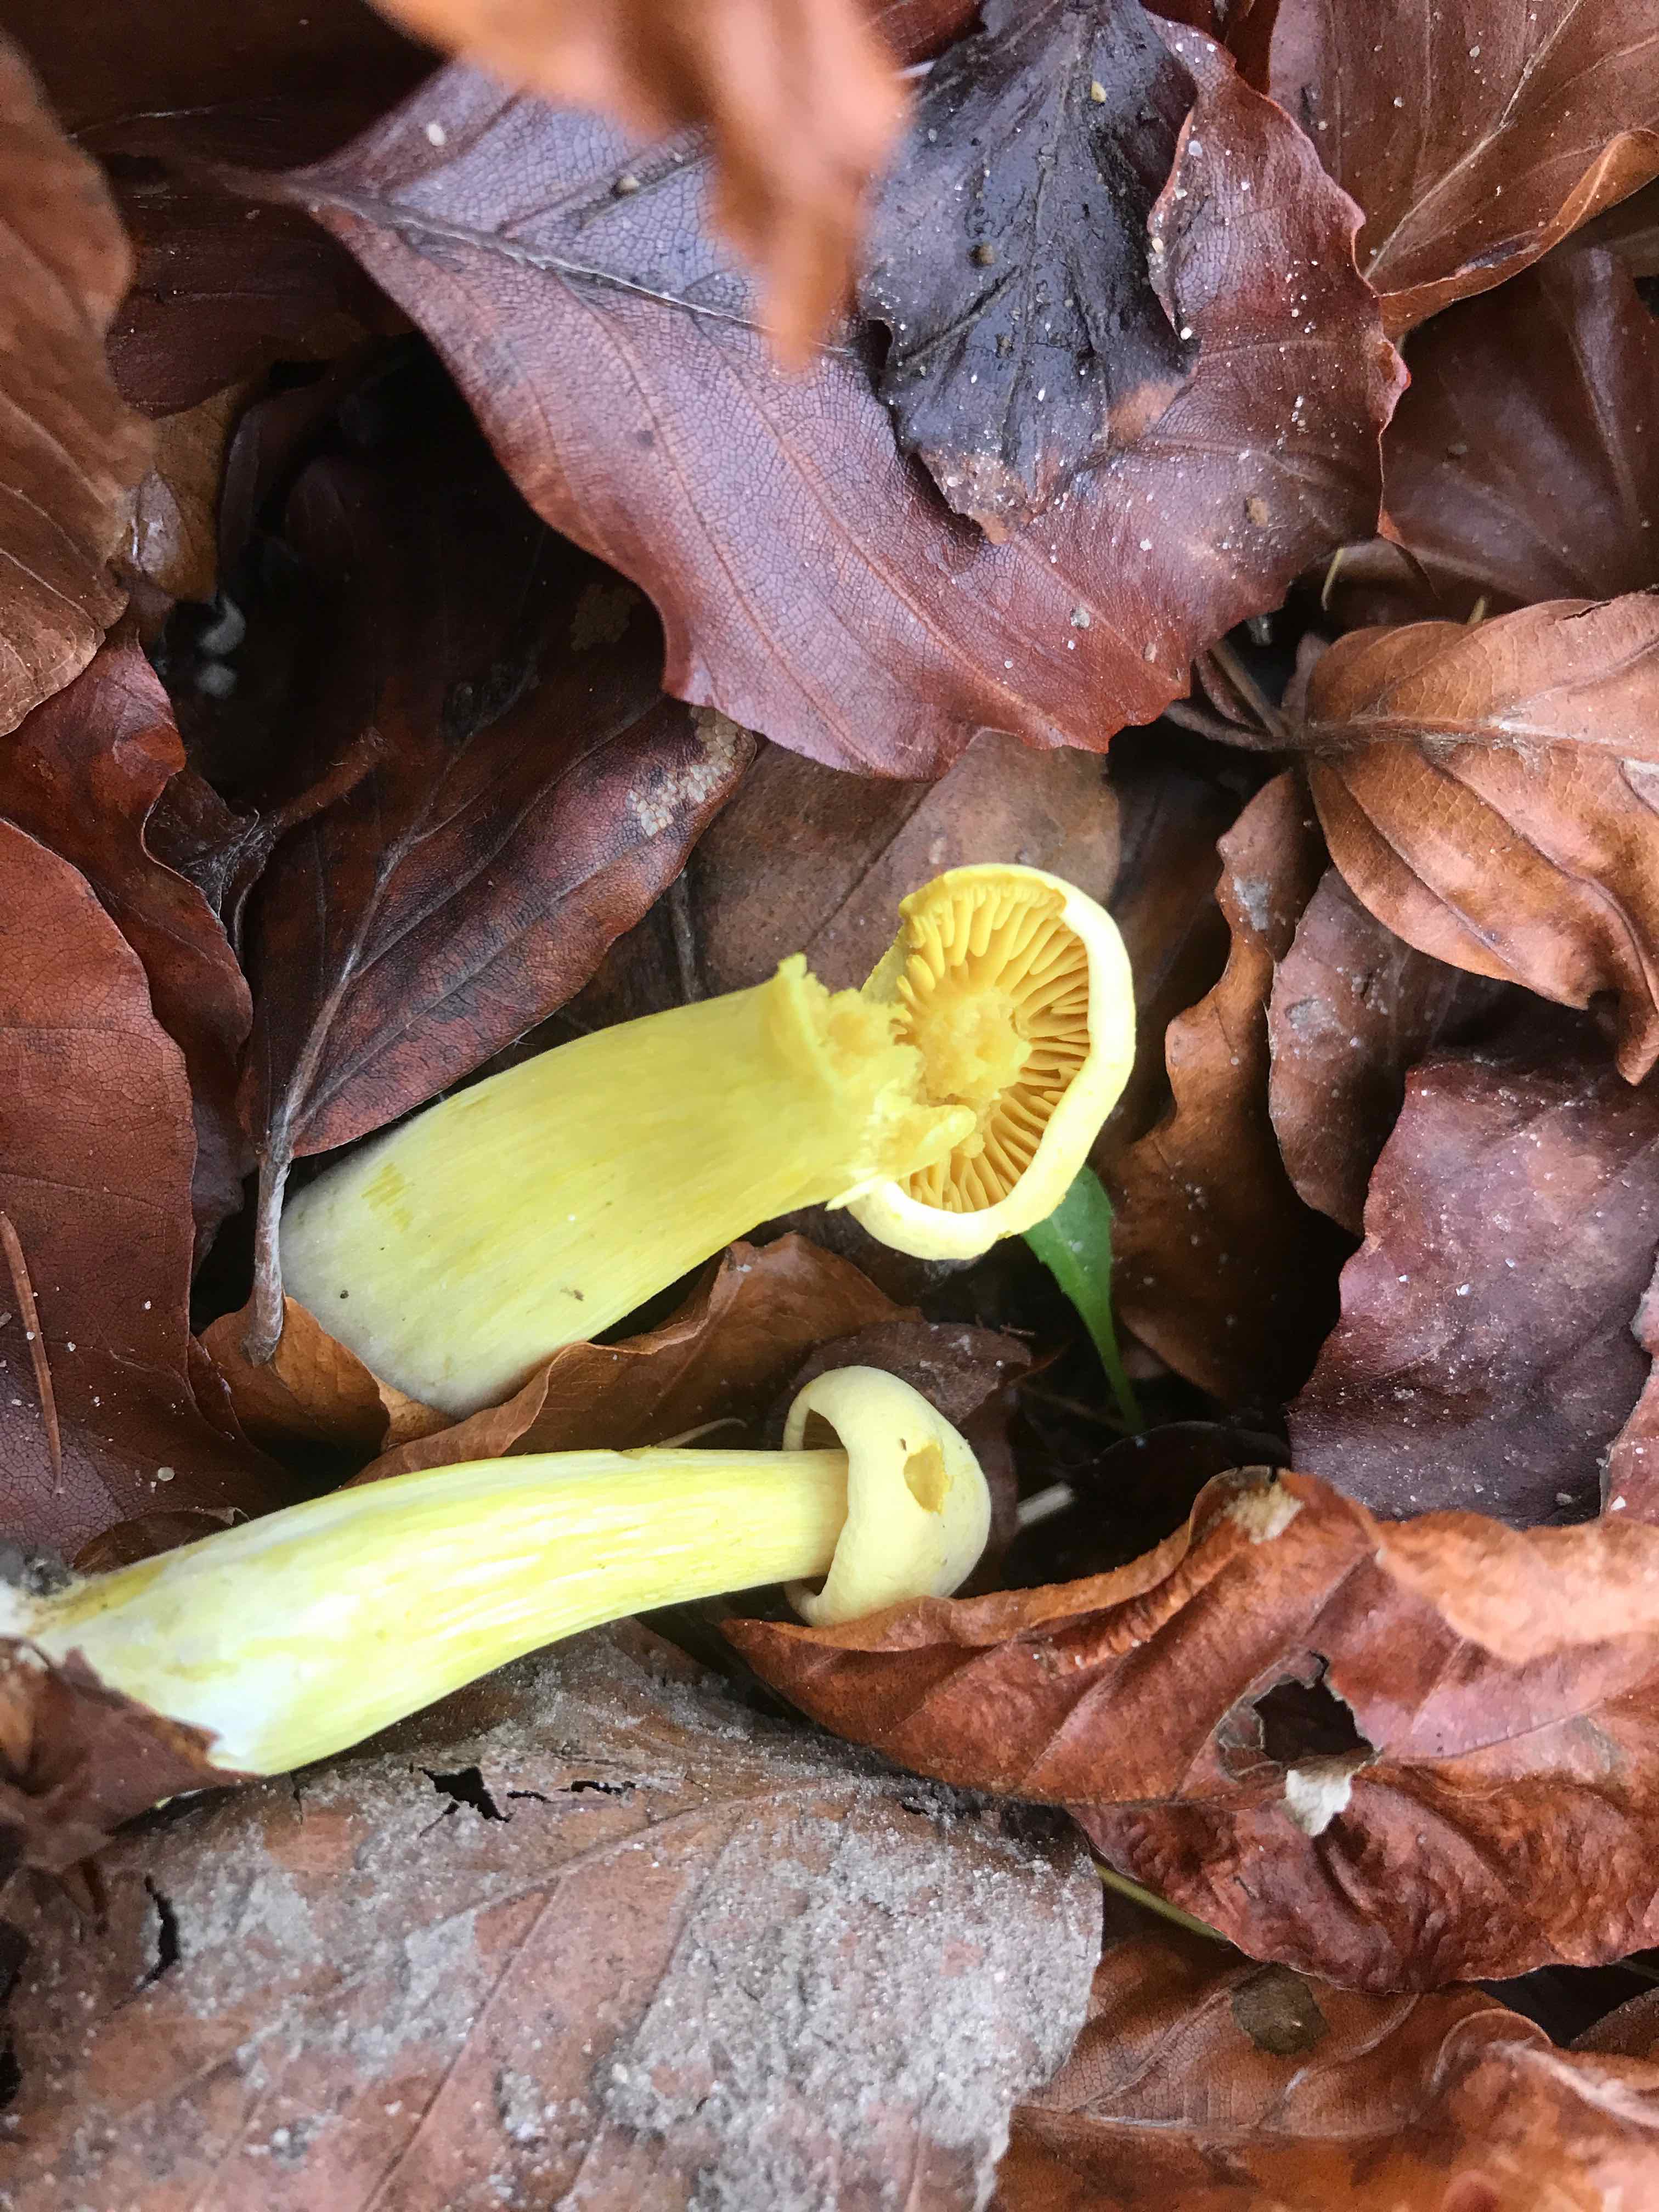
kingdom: Fungi
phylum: Basidiomycota
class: Agaricomycetes
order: Agaricales
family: Tricholomataceae
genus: Tricholoma
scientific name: Tricholoma sulphureum
